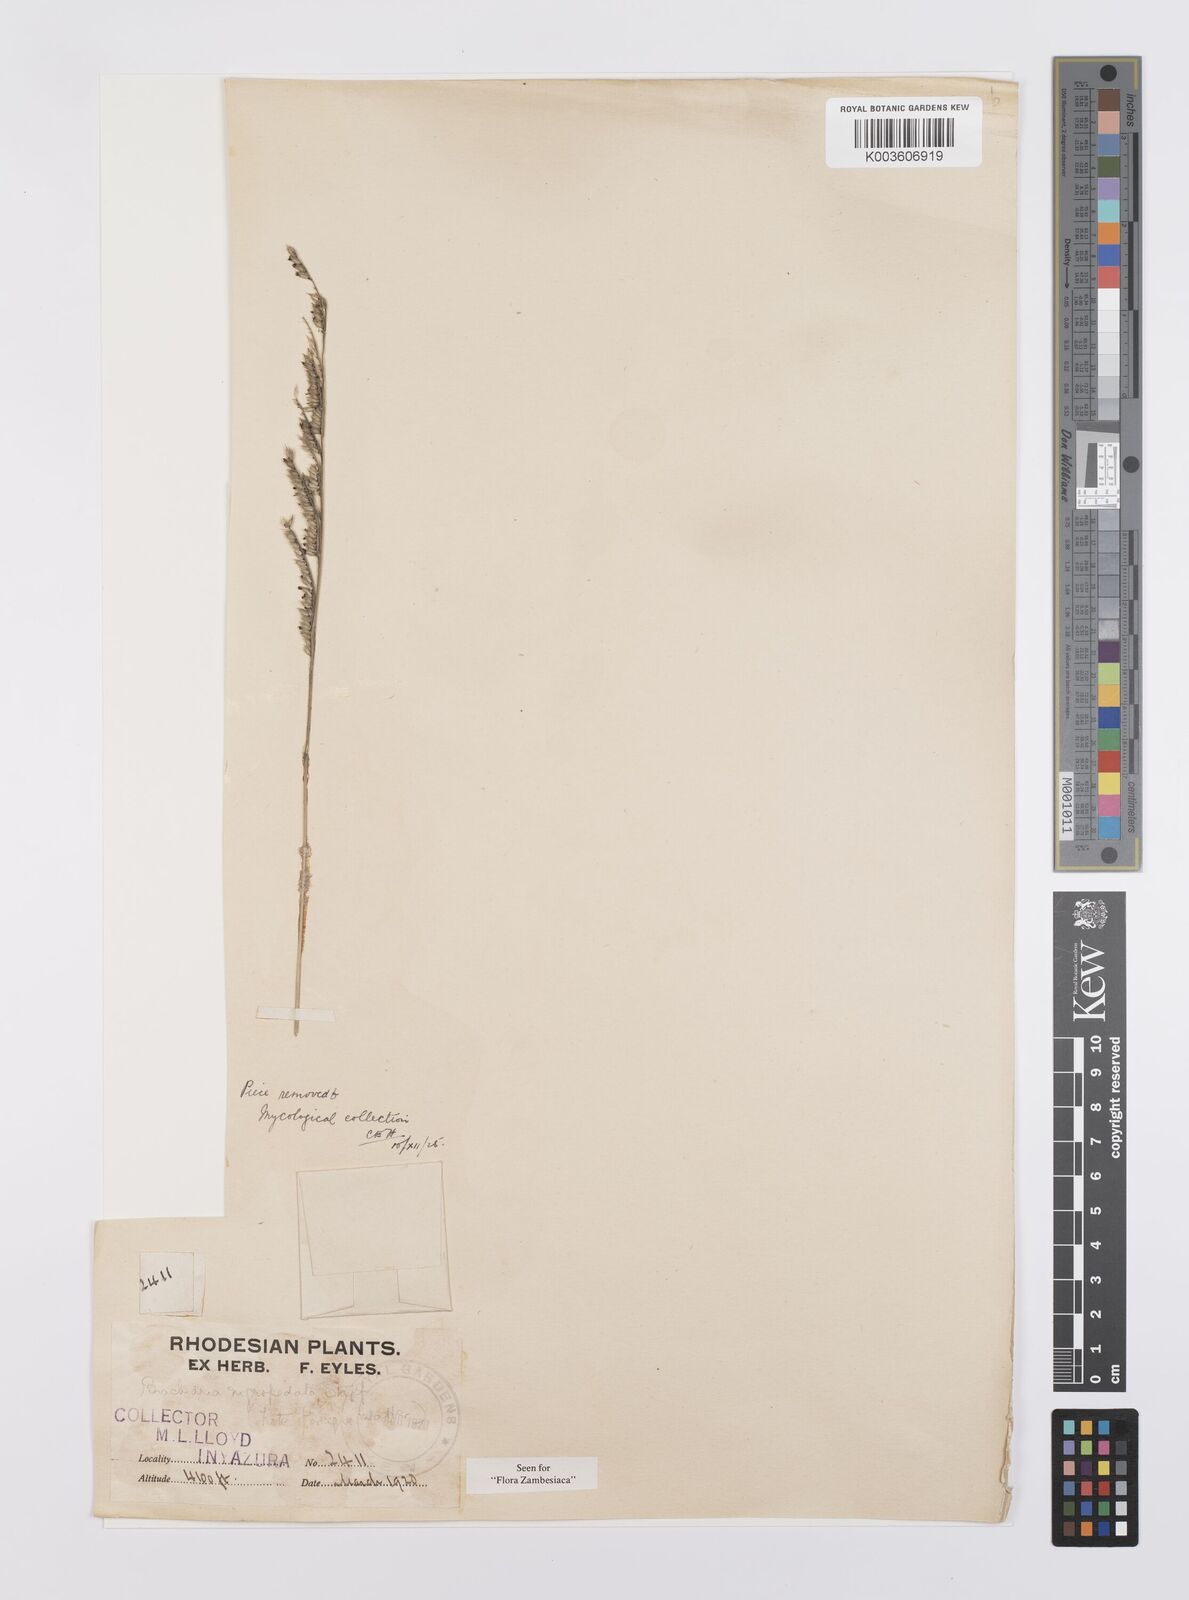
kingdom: Plantae
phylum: Tracheophyta
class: Liliopsida
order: Poales
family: Poaceae
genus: Urochloa
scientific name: Urochloa nigropedata
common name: Spotted signal grass
